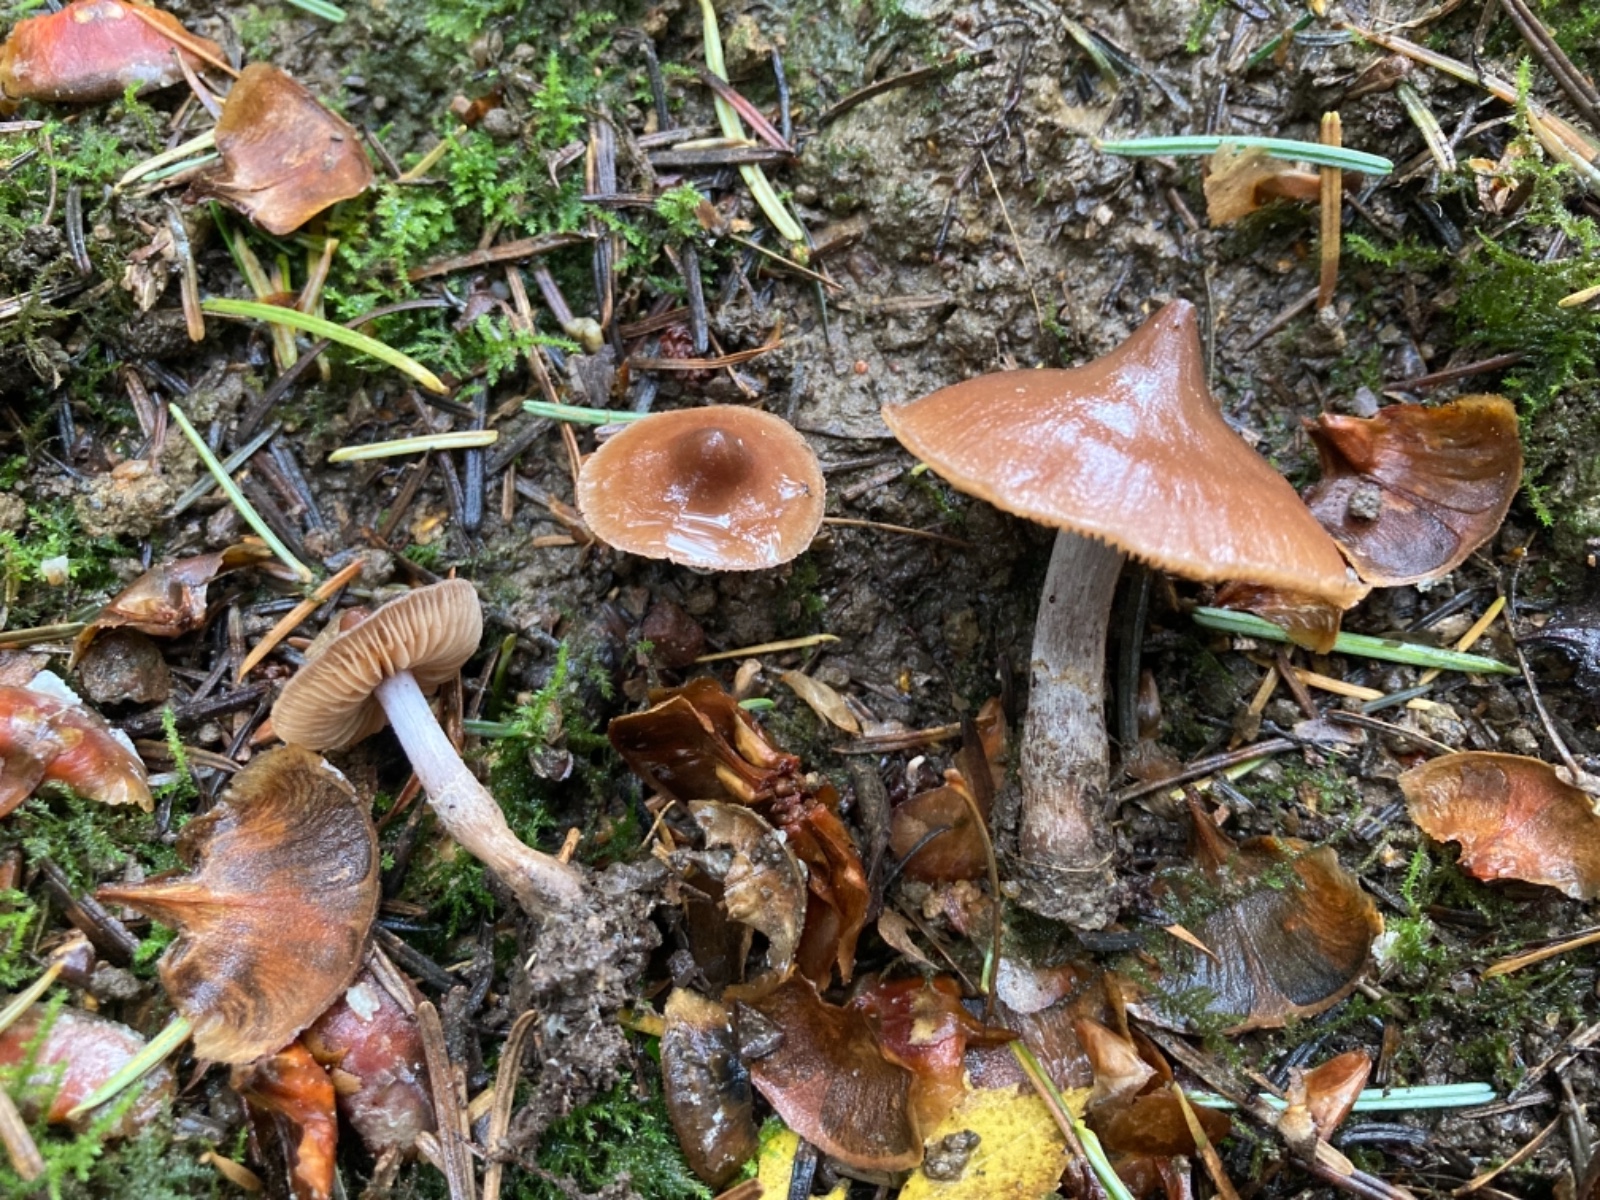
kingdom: Fungi
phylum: Basidiomycota
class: Agaricomycetes
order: Agaricales
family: Cortinariaceae
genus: Cortinarius
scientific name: Cortinarius comptulus
